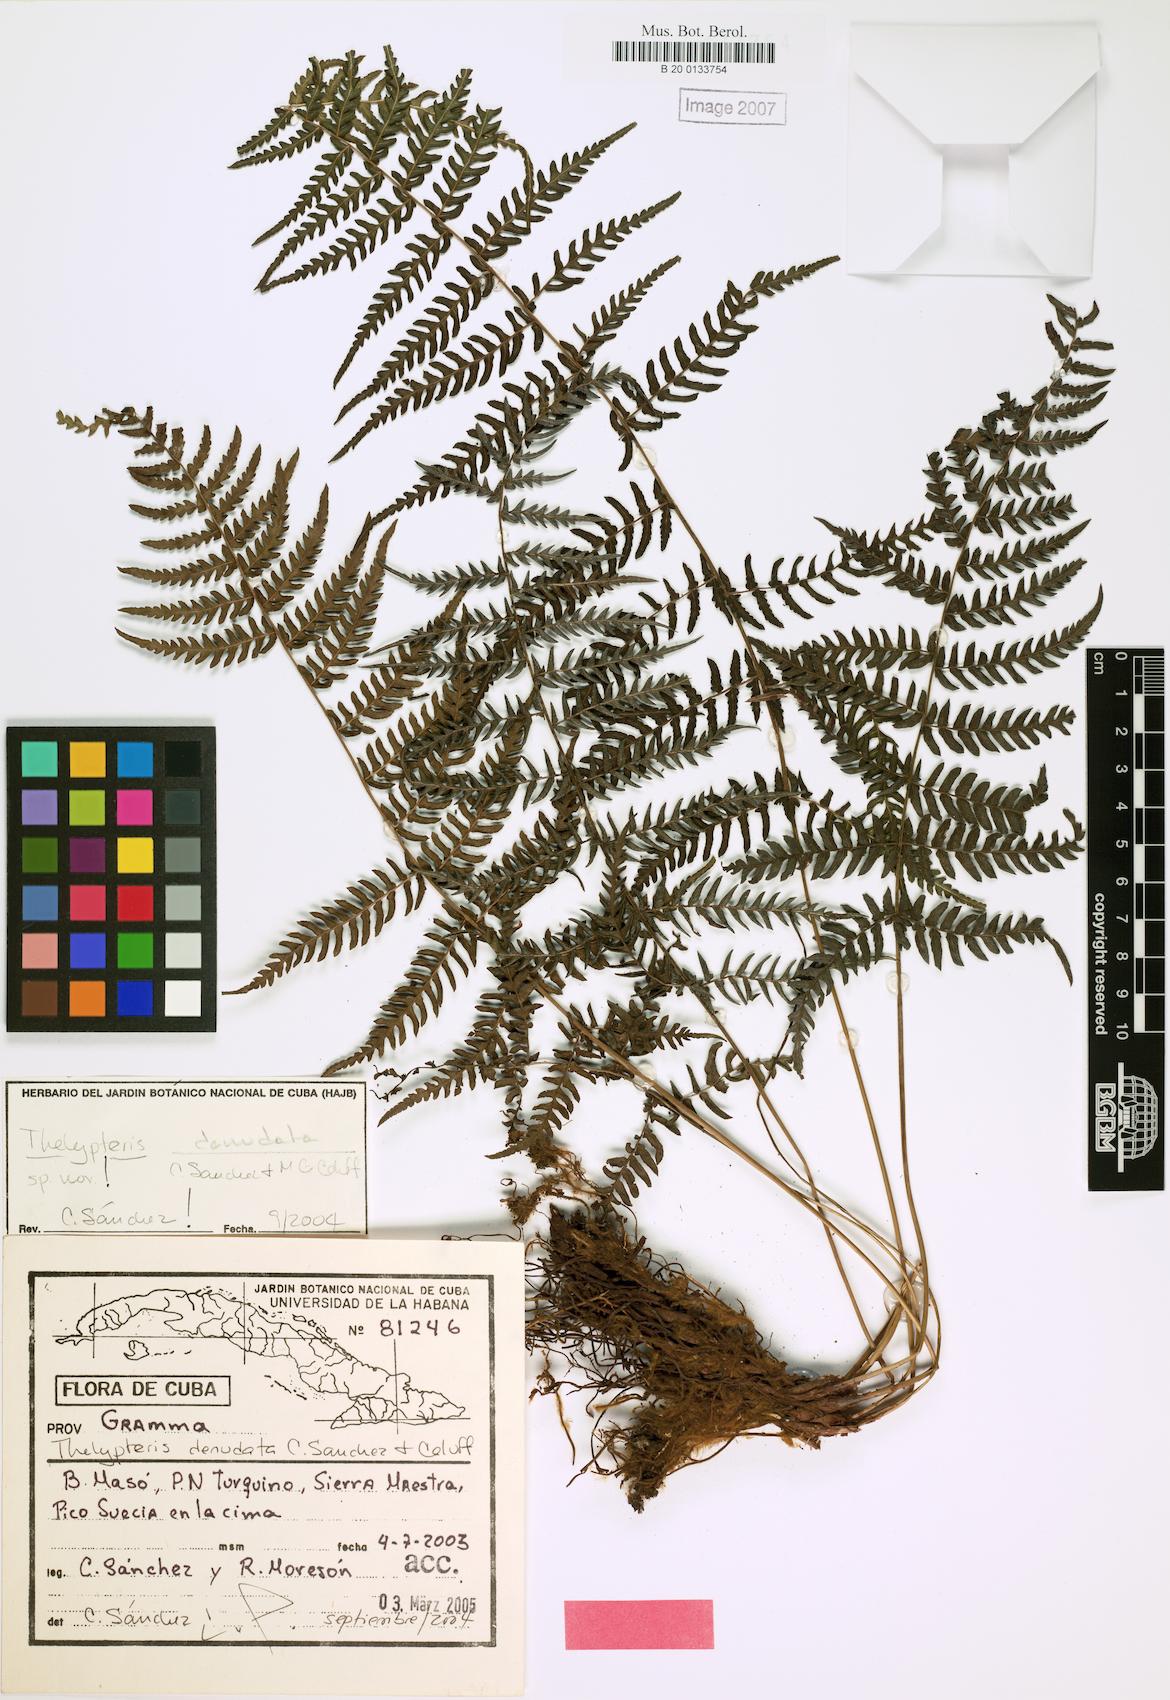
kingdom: Plantae
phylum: Tracheophyta
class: Polypodiopsida
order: Polypodiales
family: Thelypteridaceae
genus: Amauropelta
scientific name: Amauropelta denudata
